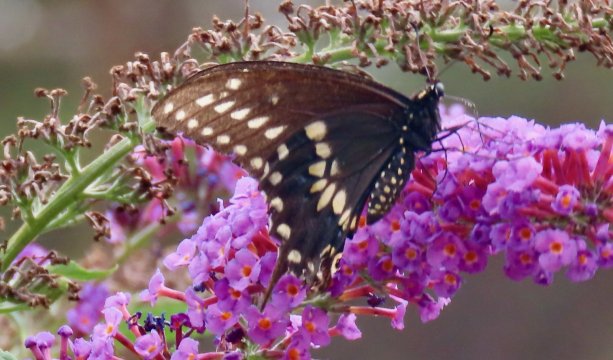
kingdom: Animalia
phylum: Arthropoda
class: Insecta
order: Lepidoptera
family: Papilionidae
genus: Papilio
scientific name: Papilio polyxenes
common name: Black Swallowtail
